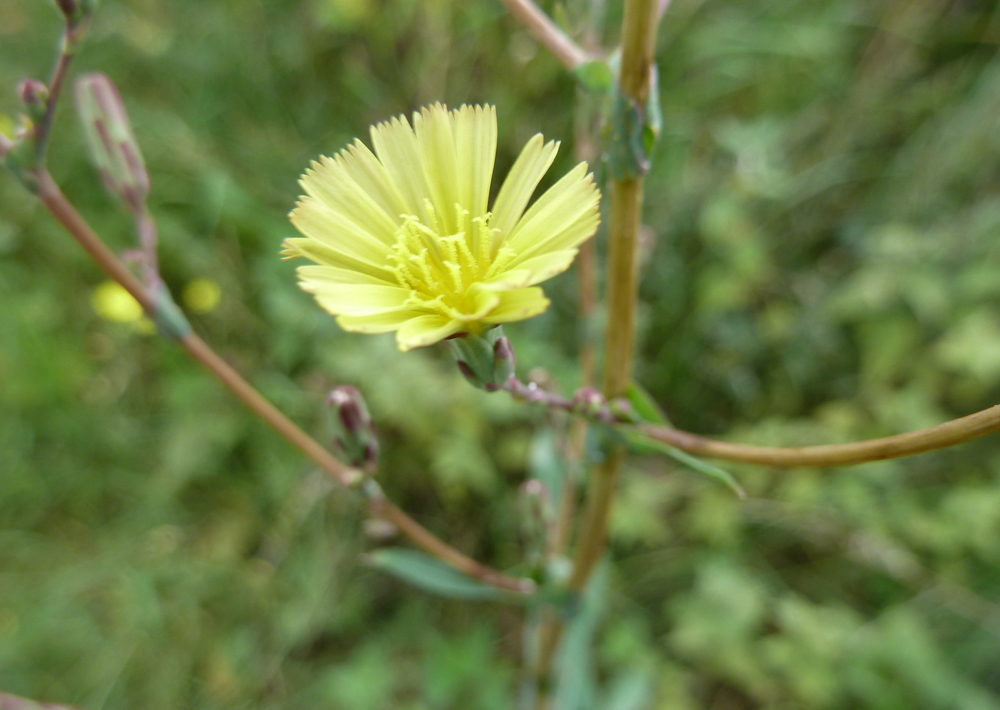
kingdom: Plantae
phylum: Tracheophyta
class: Magnoliopsida
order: Asterales
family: Asteraceae
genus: Lactuca
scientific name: Lactuca serriola
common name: Prickly lettuce
